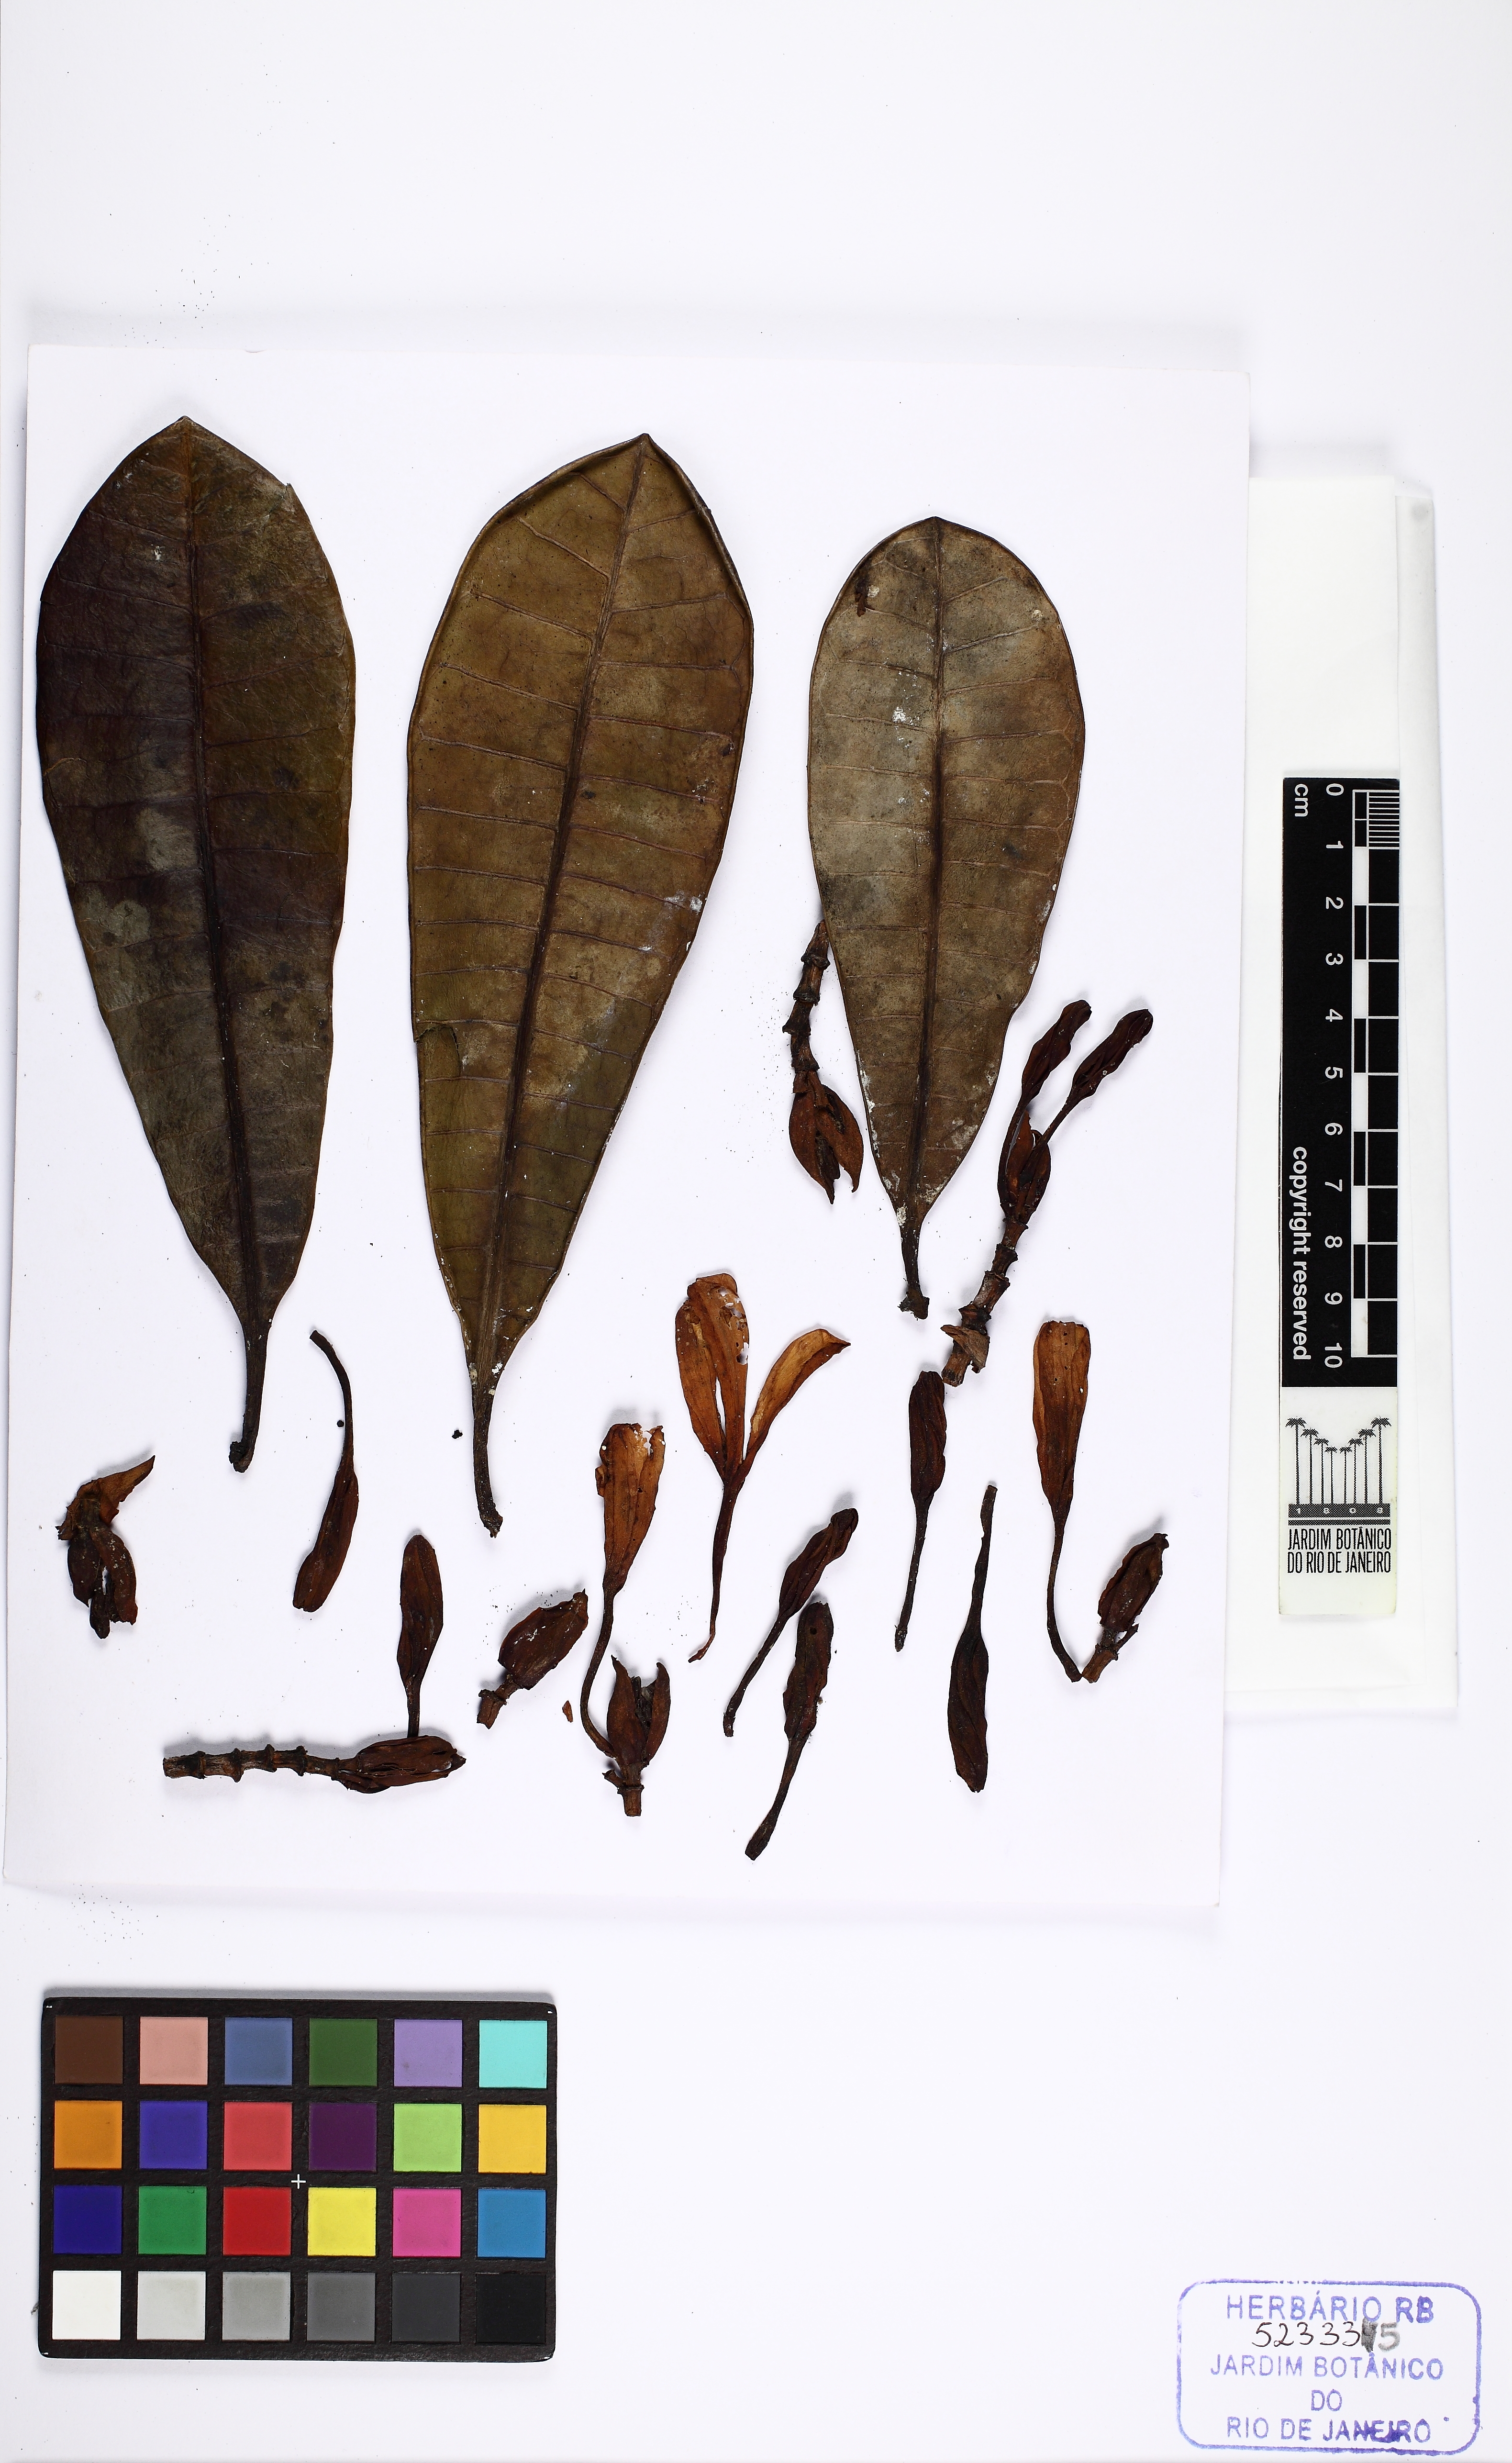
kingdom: Plantae
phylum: Tracheophyta
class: Magnoliopsida
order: Gentianales
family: Apocynaceae
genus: Himatanthus
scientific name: Himatanthus articulatus
